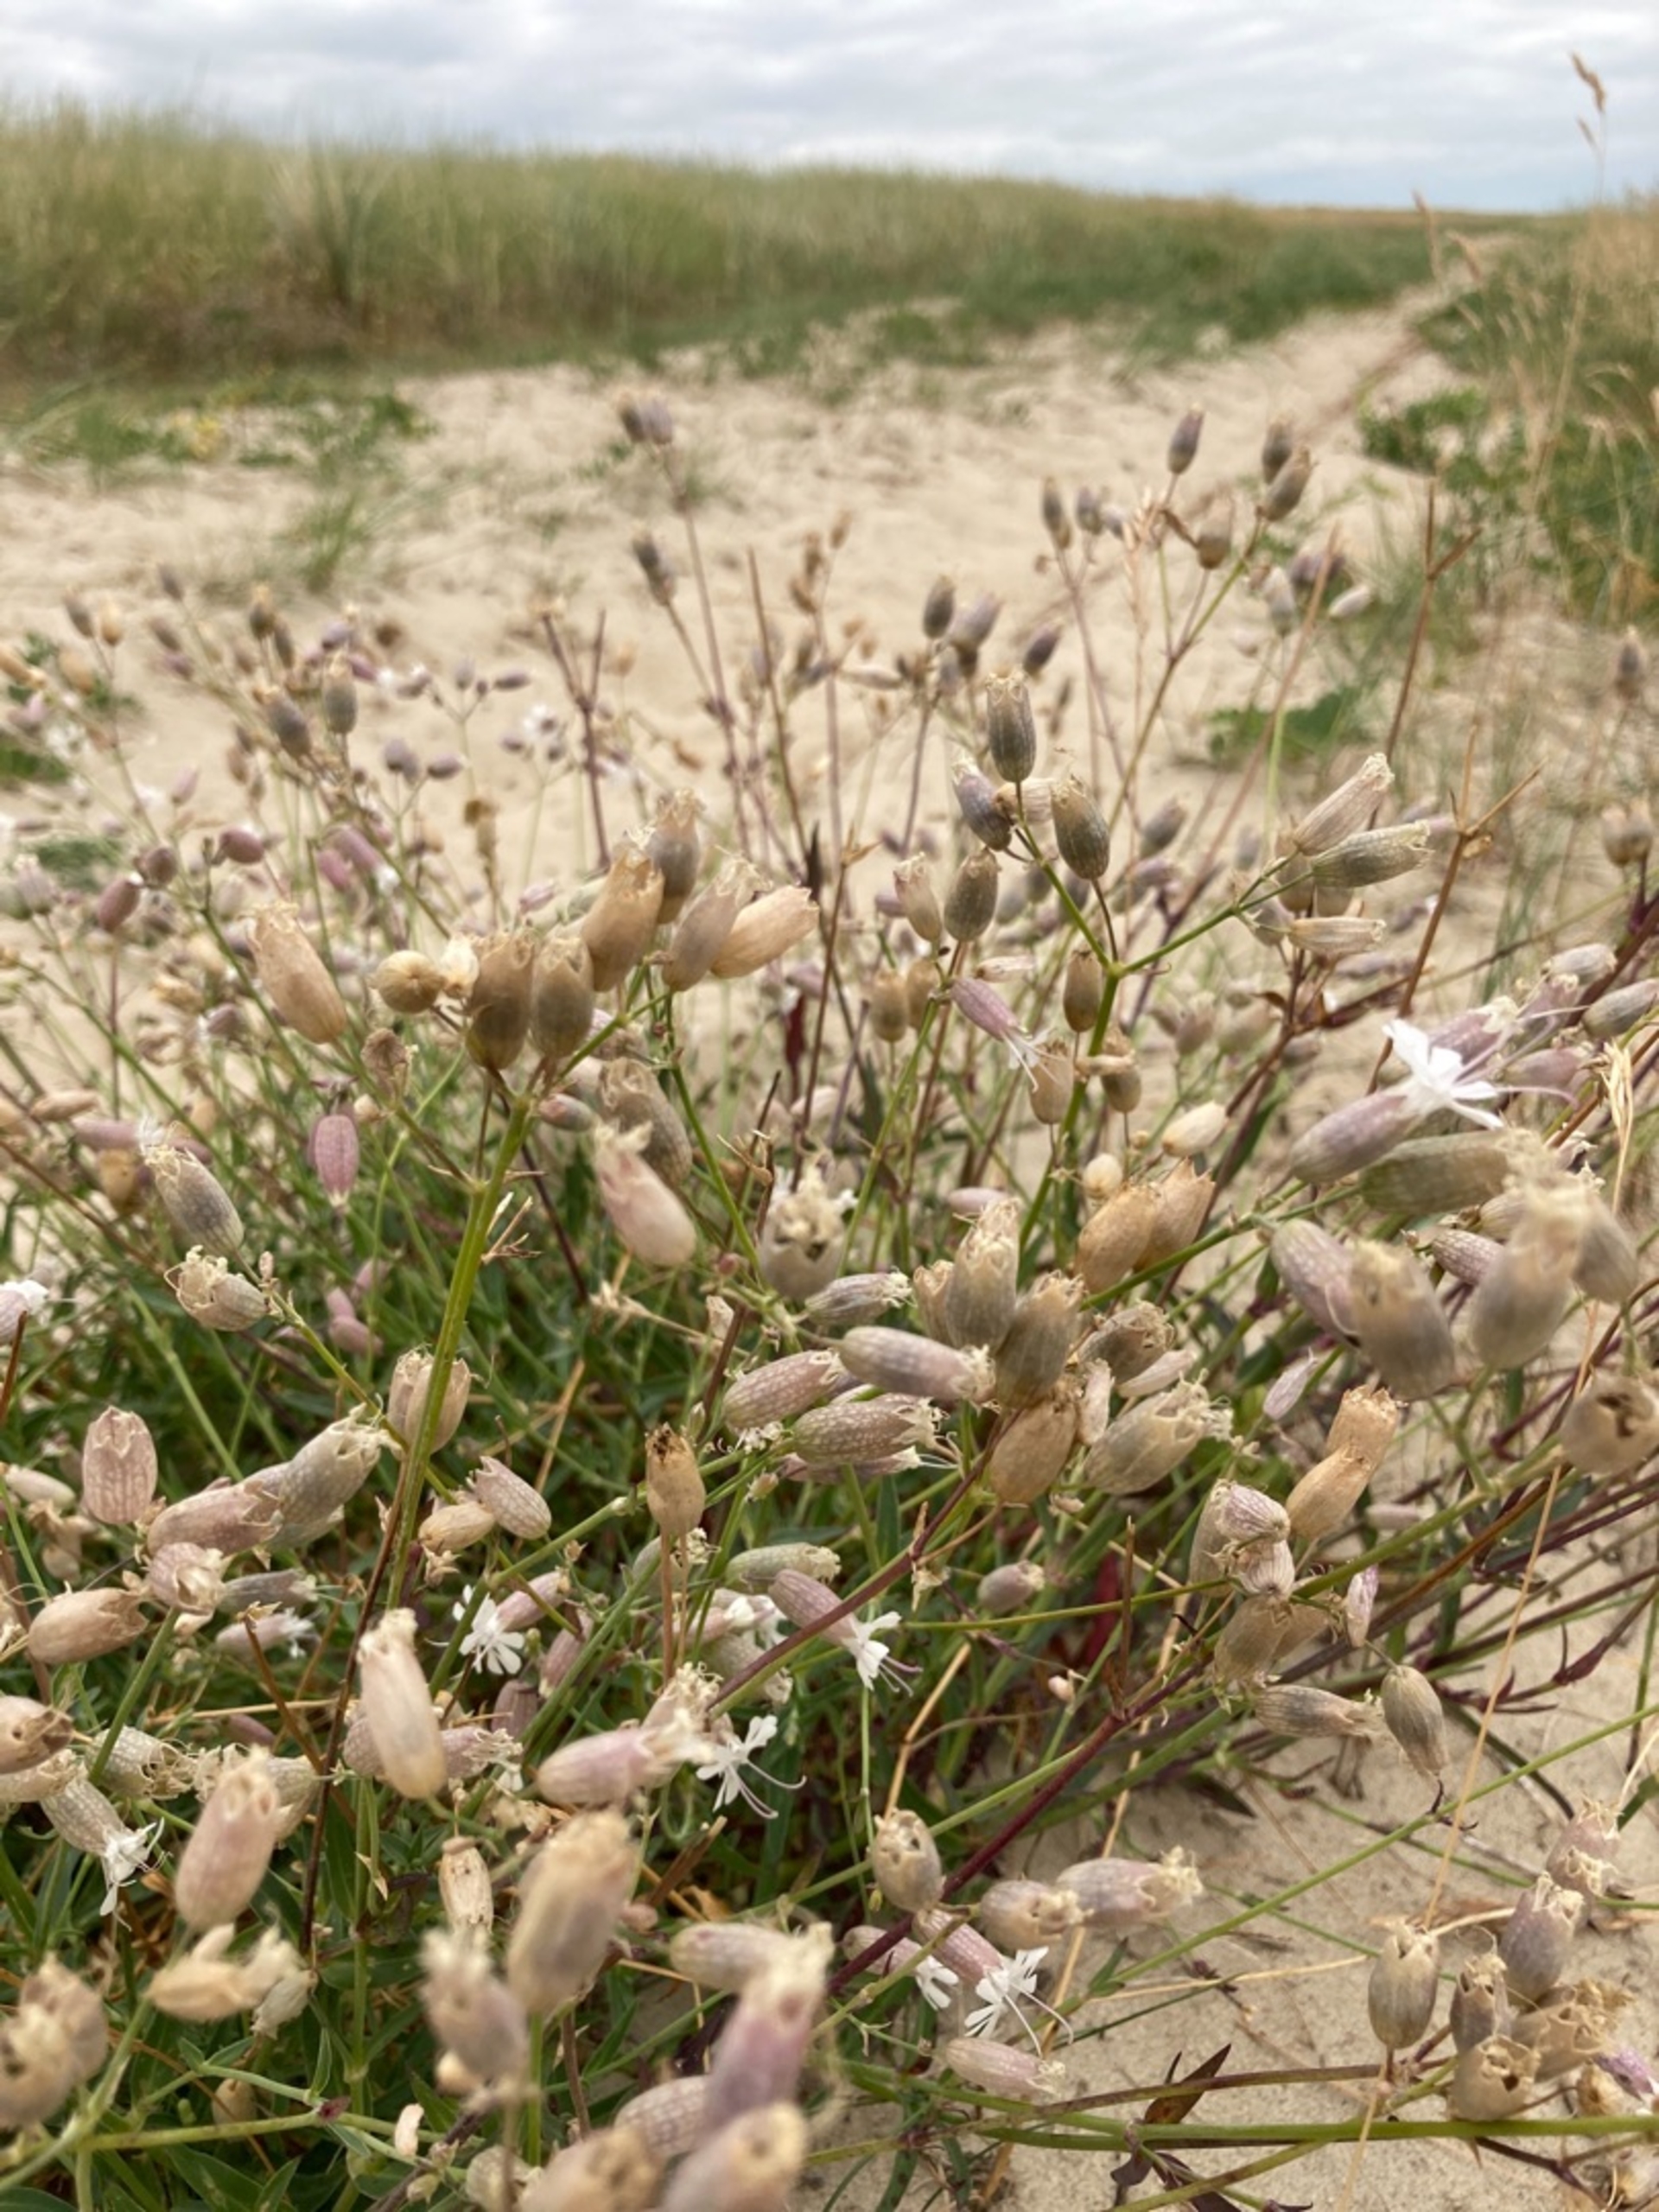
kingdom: Plantae
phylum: Tracheophyta
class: Magnoliopsida
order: Caryophyllales
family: Caryophyllaceae
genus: Silene
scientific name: Silene vulgaris
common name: Blæresmælde
